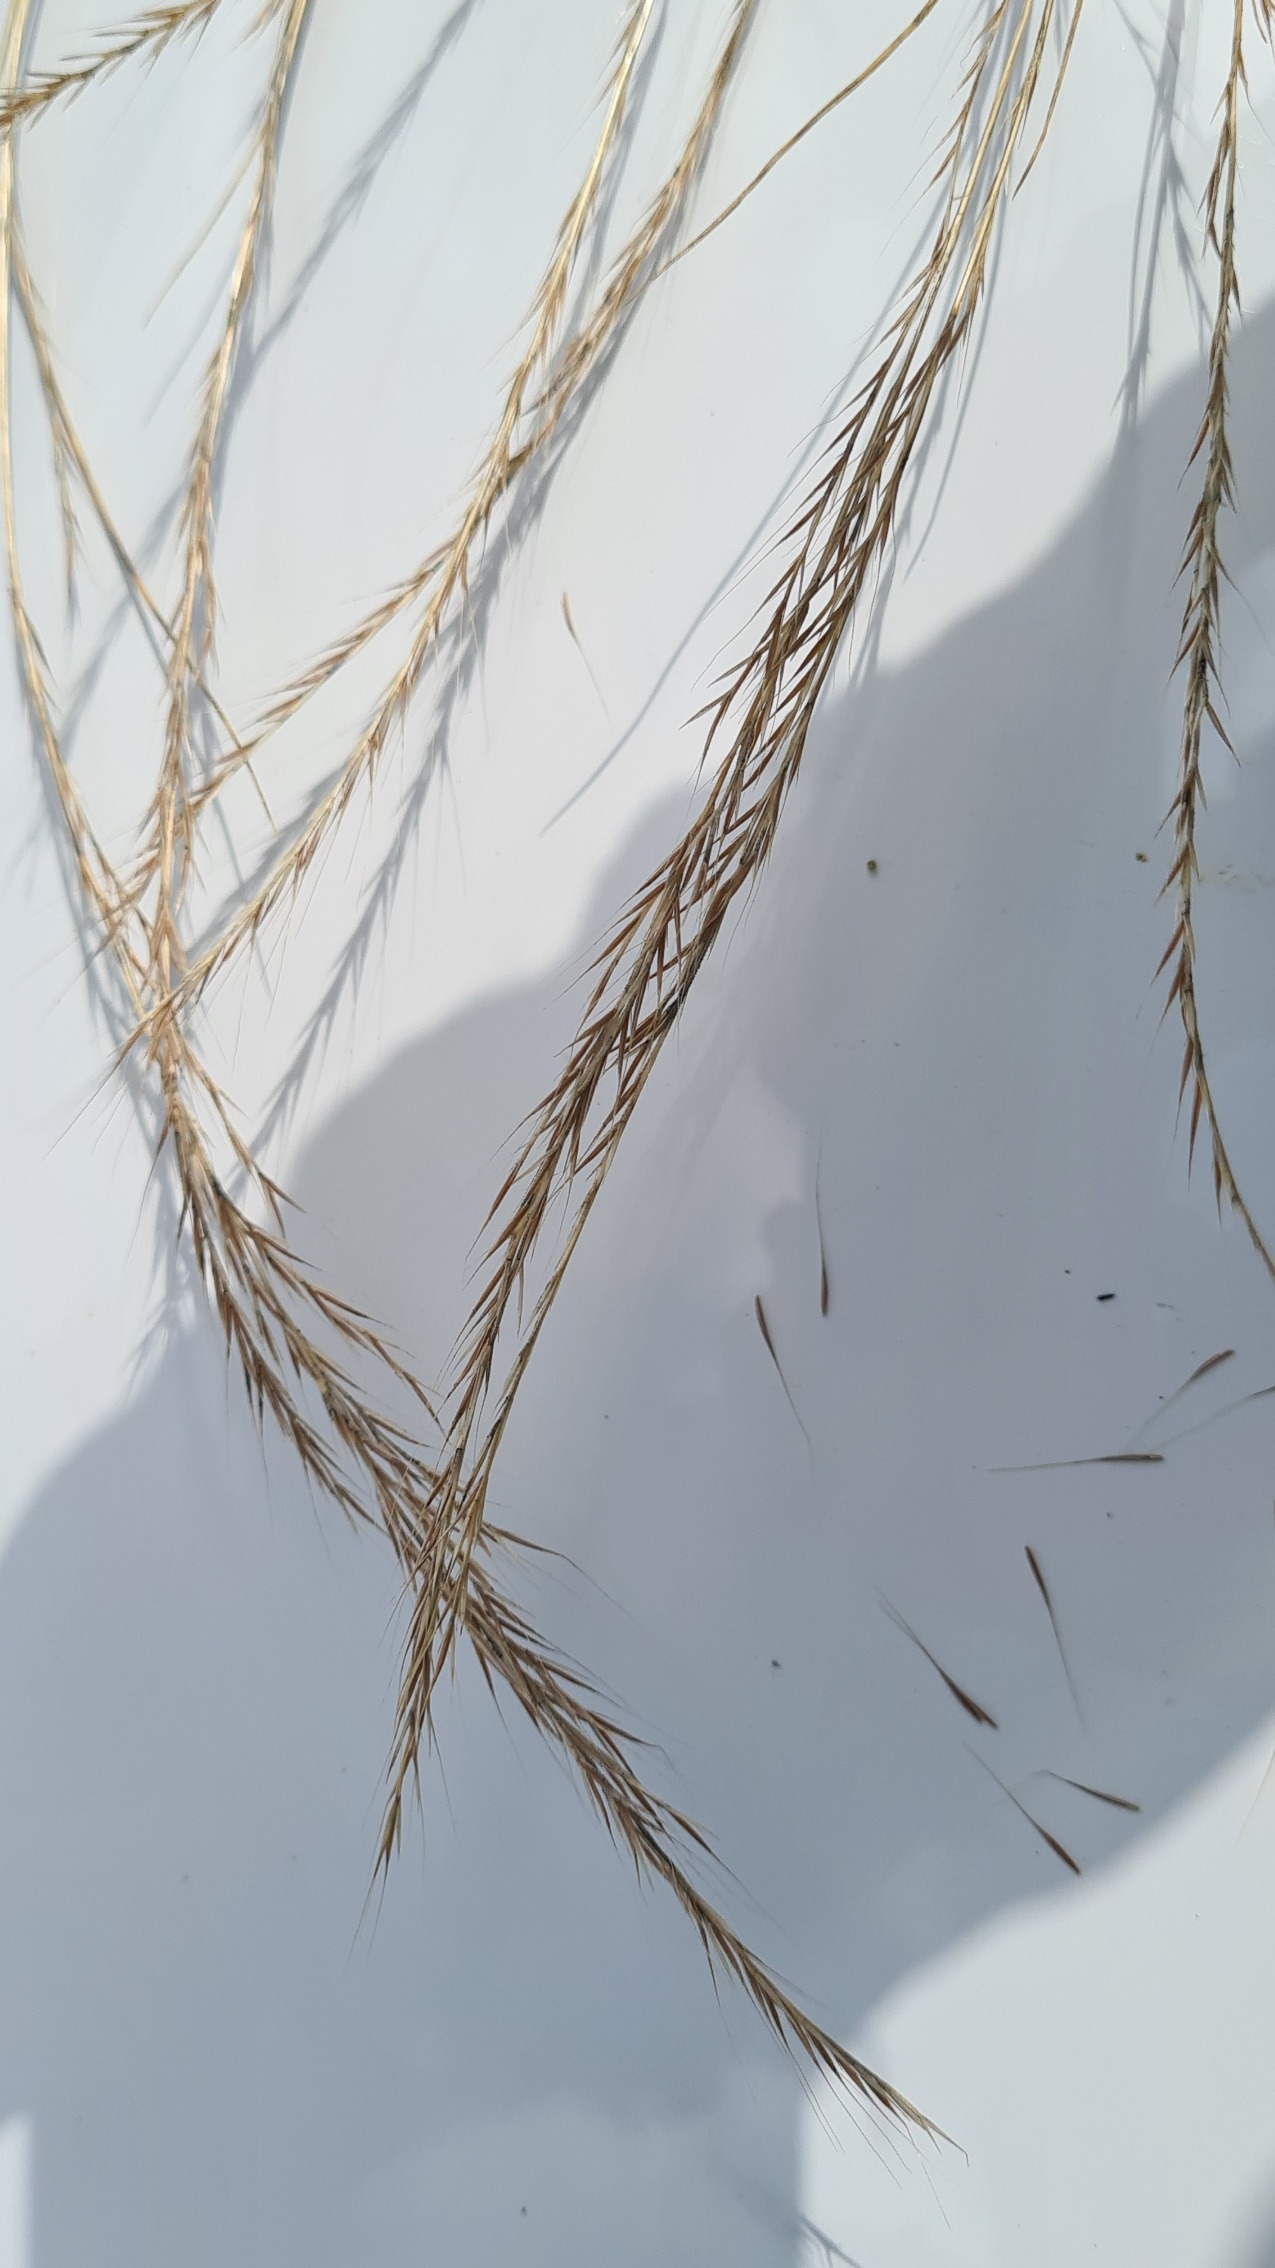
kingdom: Plantae
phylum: Tracheophyta
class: Liliopsida
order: Poales
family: Poaceae
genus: Festuca
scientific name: Festuca
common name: Væselhaleslægten
